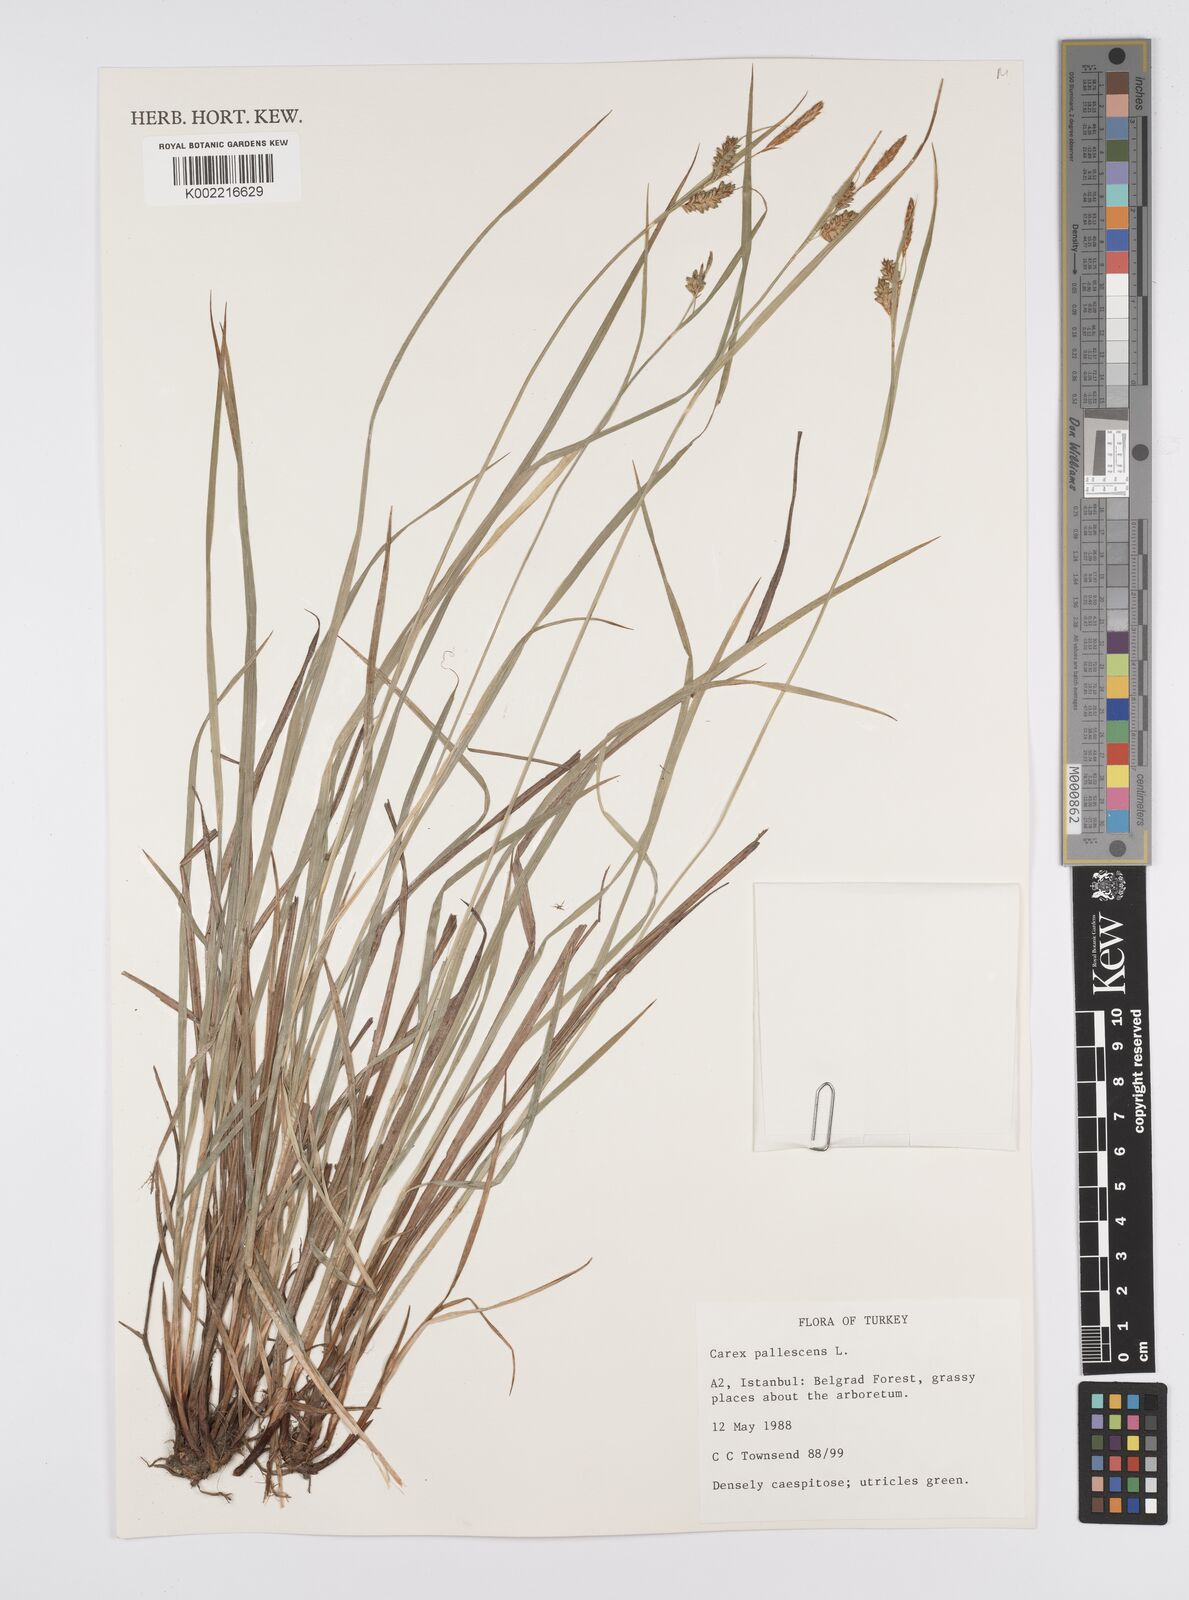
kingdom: Plantae
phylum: Tracheophyta
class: Liliopsida
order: Poales
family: Cyperaceae
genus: Carex
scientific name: Carex pallescens
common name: Pale sedge
